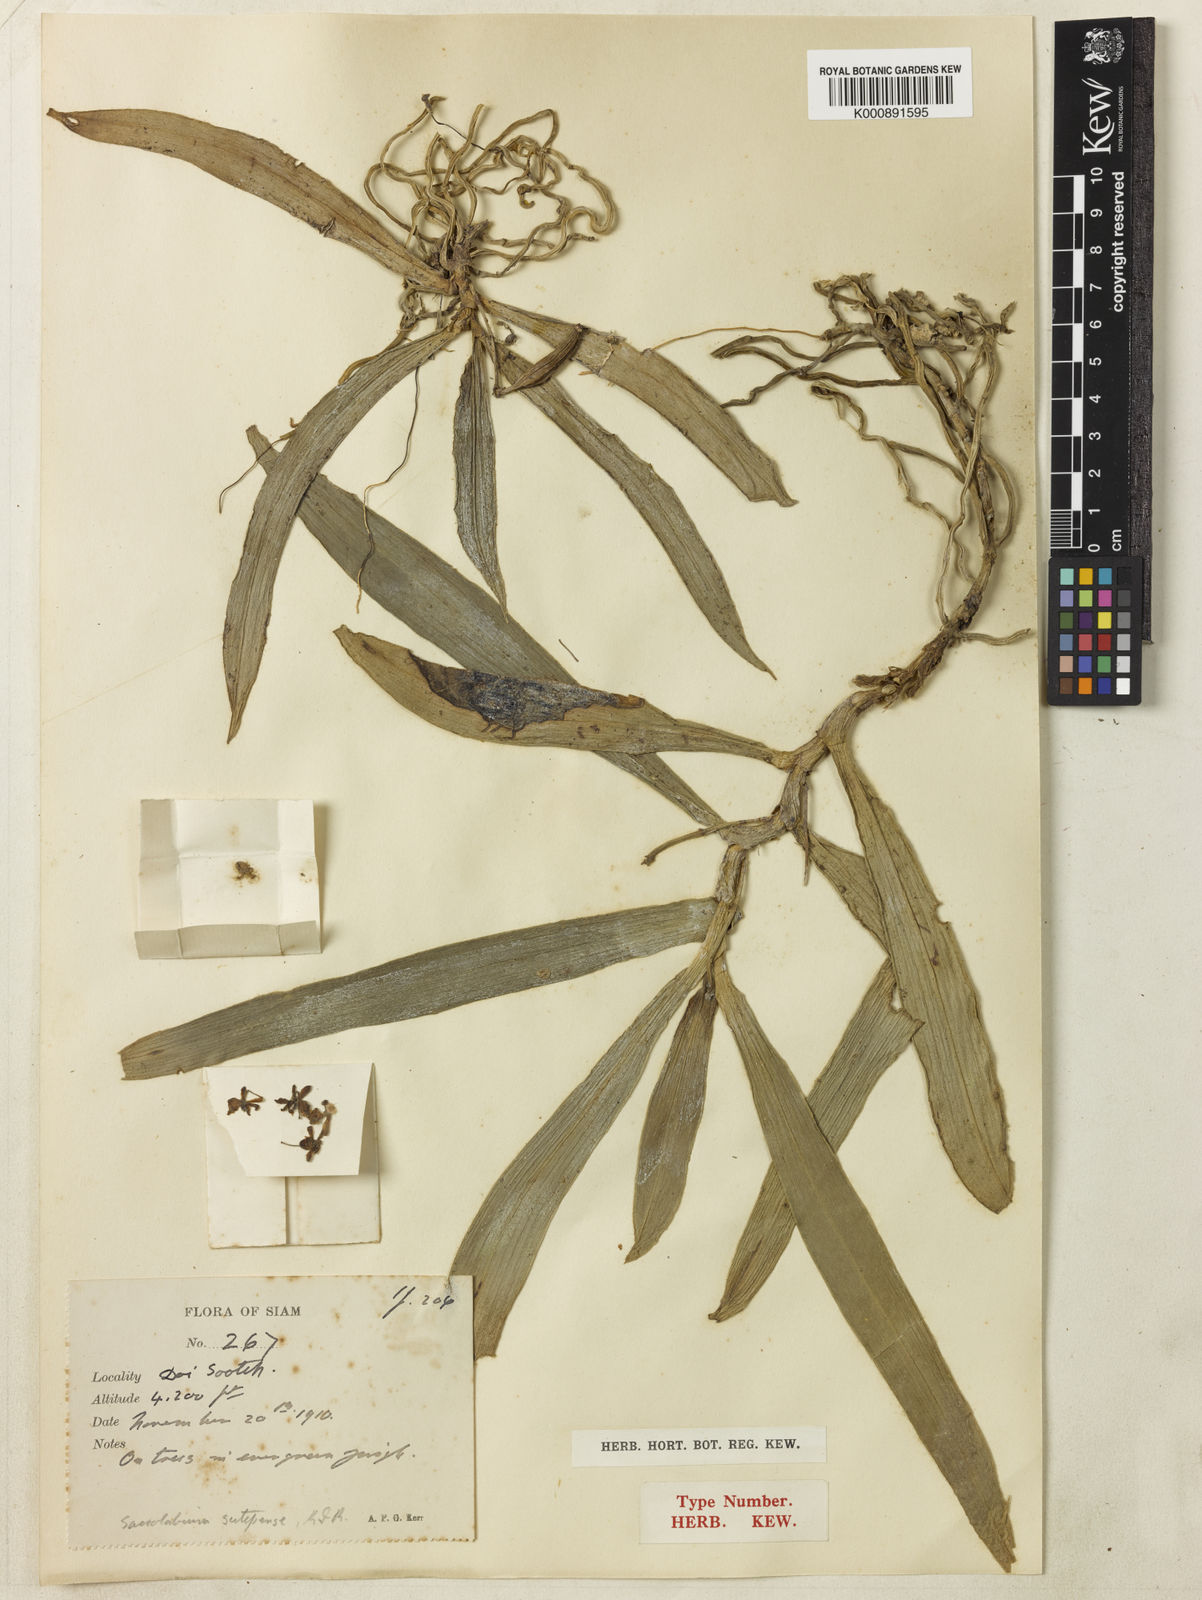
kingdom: Plantae
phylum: Tracheophyta
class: Liliopsida
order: Asparagales
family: Orchidaceae
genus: Gastrochilus
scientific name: Gastrochilus sutepensis
